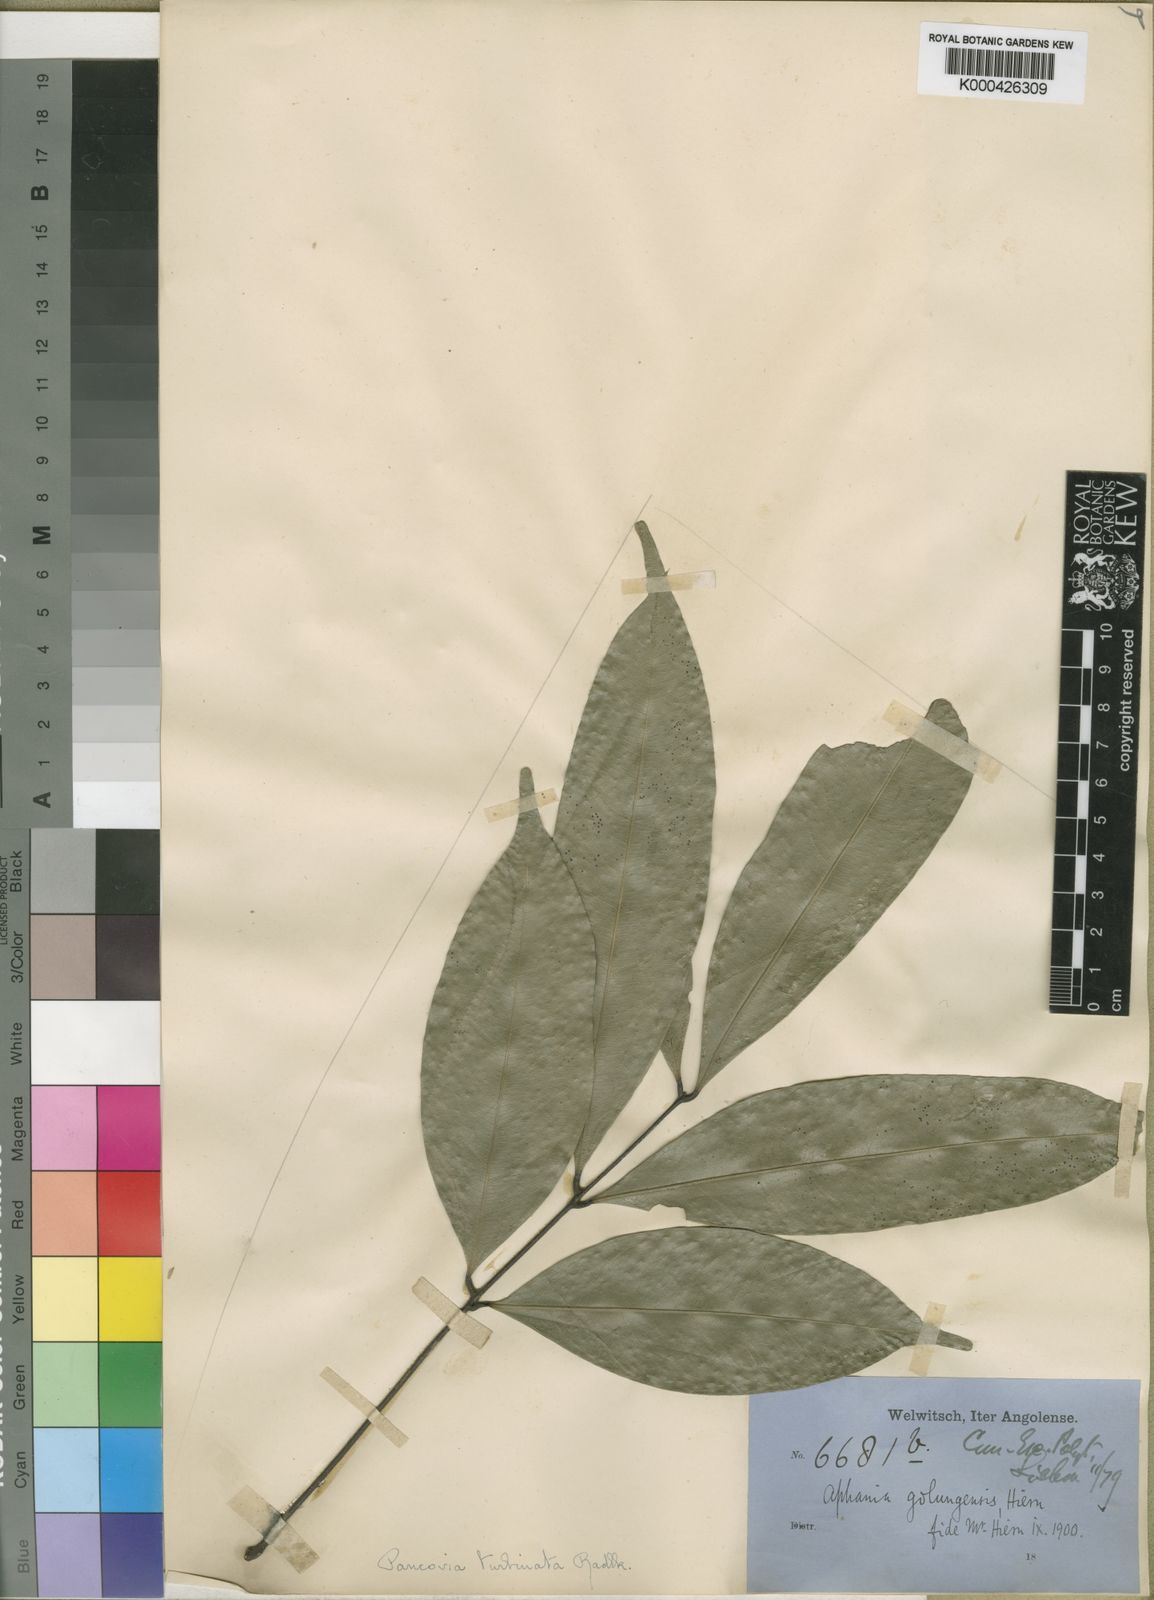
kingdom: Plantae
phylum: Tracheophyta
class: Magnoliopsida
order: Sapindales
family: Sapindaceae
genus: Pancovia
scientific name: Pancovia
